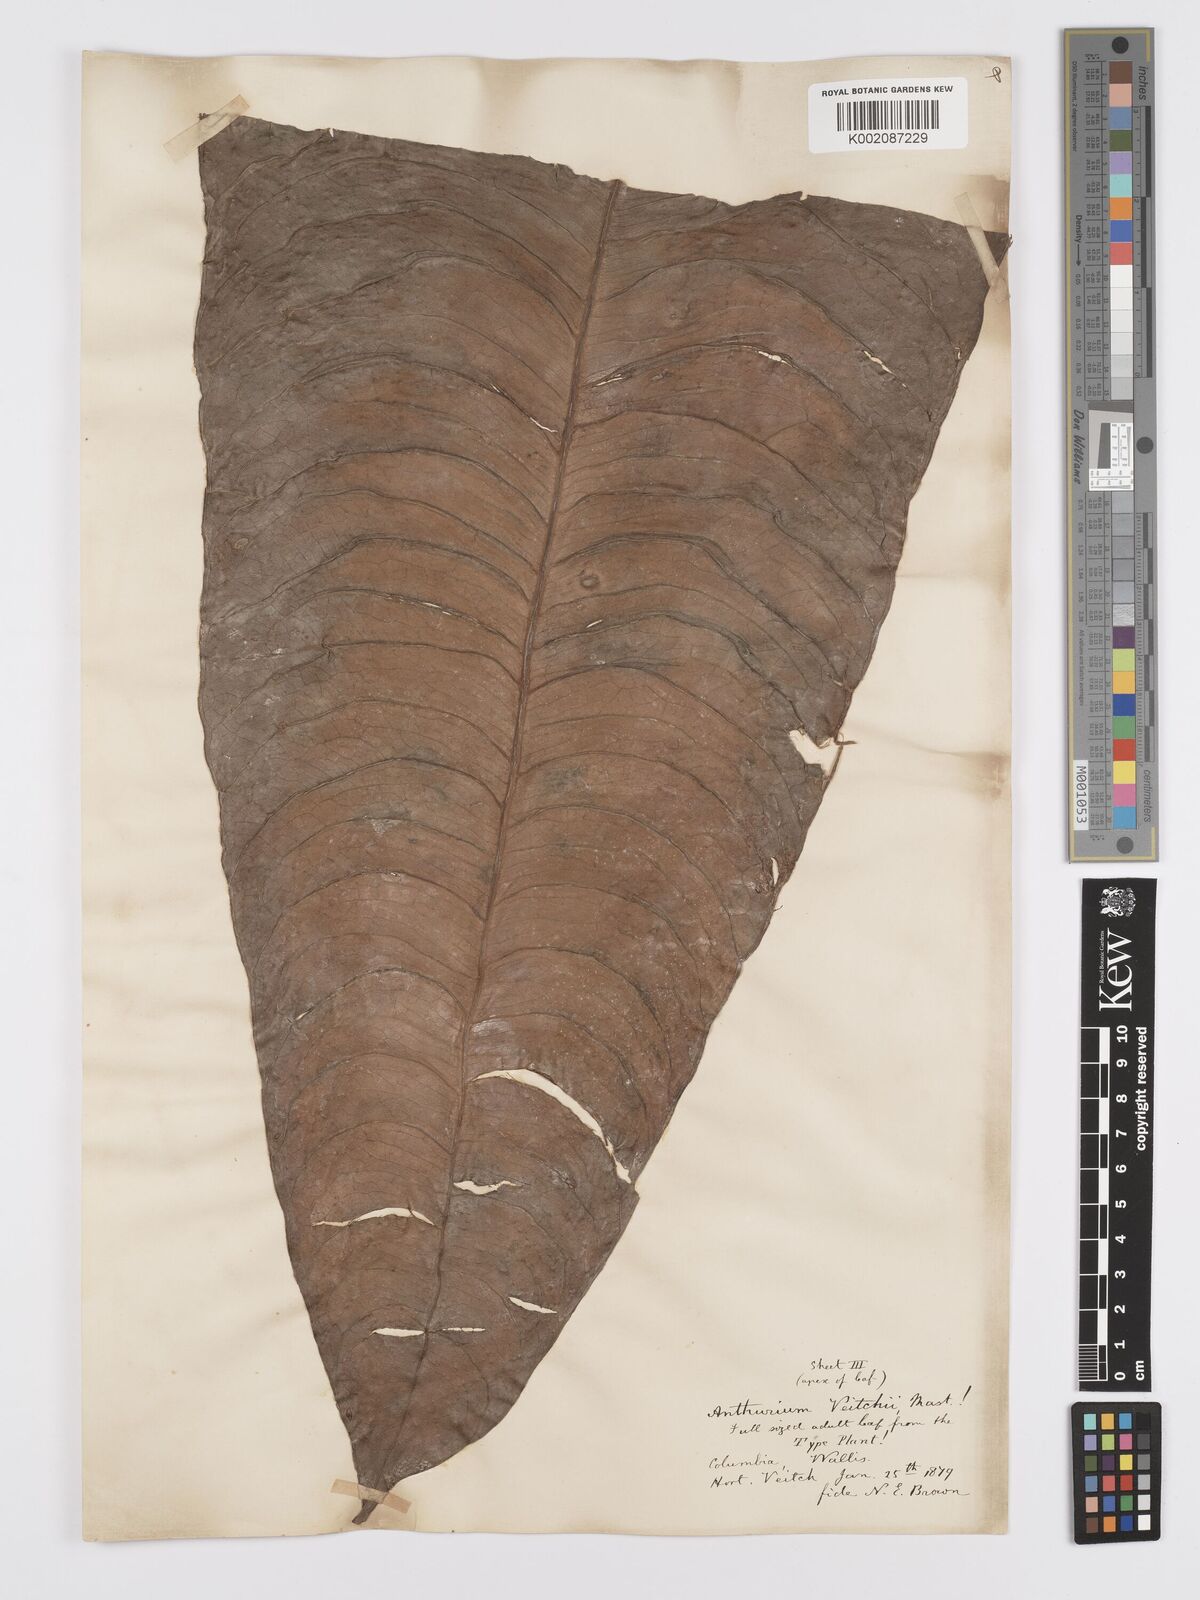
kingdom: Plantae
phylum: Tracheophyta
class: Liliopsida
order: Alismatales
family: Araceae
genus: Anthurium
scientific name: Anthurium veitchii
